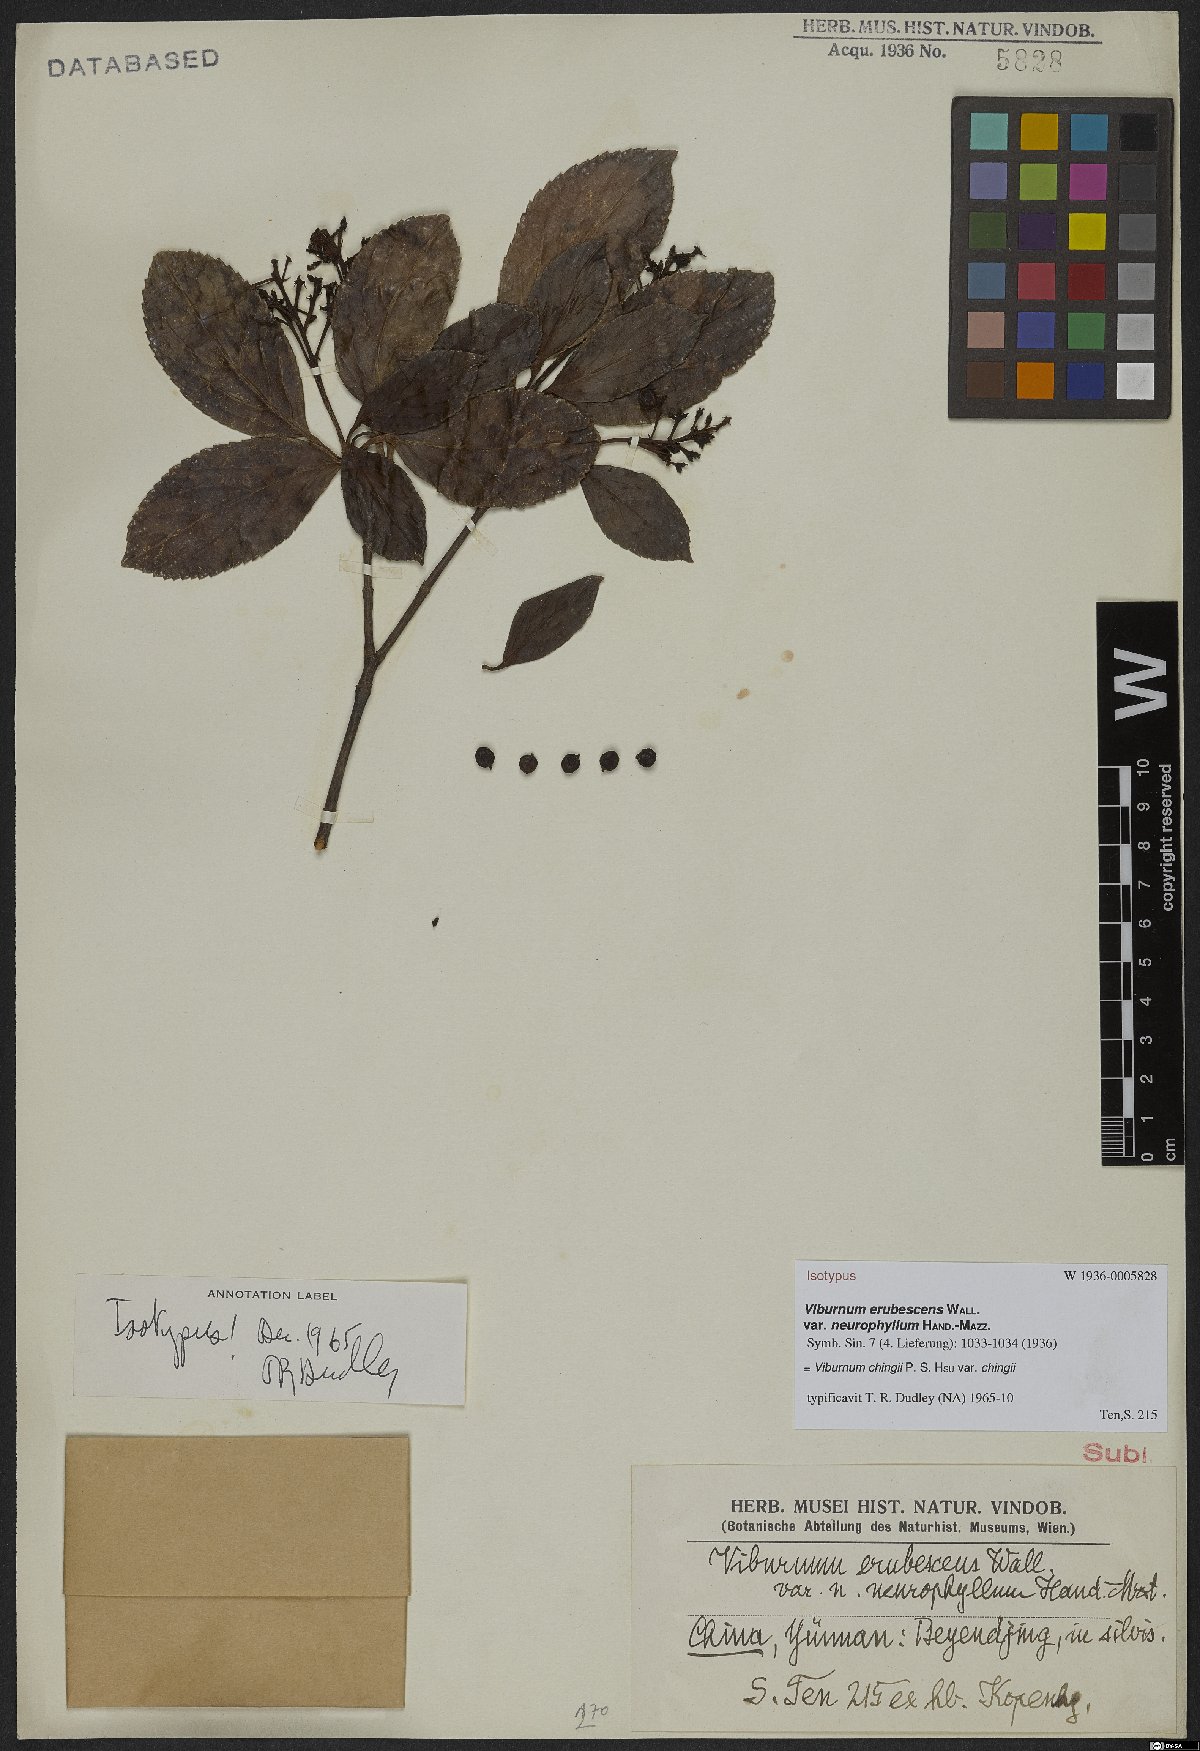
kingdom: Plantae
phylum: Tracheophyta
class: Magnoliopsida
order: Dipsacales
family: Viburnaceae
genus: Viburnum
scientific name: Viburnum chingii
